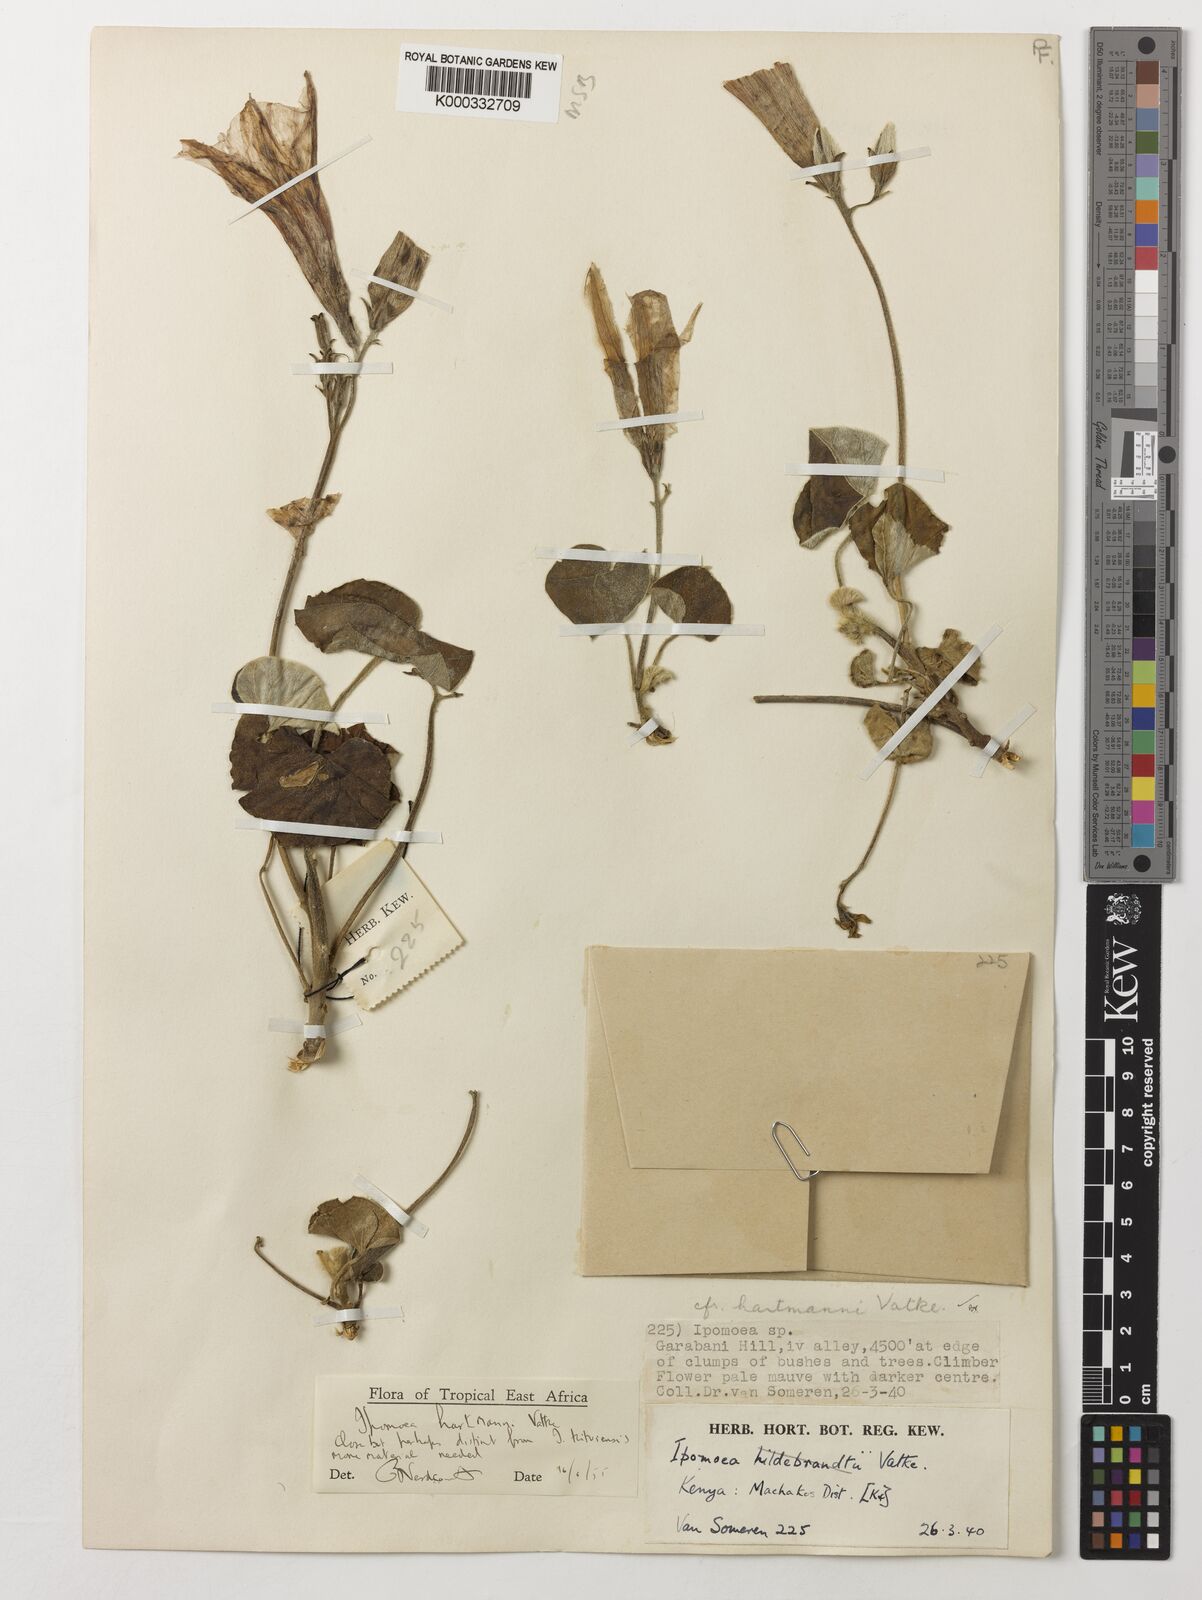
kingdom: Plantae
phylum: Tracheophyta
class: Magnoliopsida
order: Solanales
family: Convolvulaceae
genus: Ipomoea
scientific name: Ipomoea hartmannii
